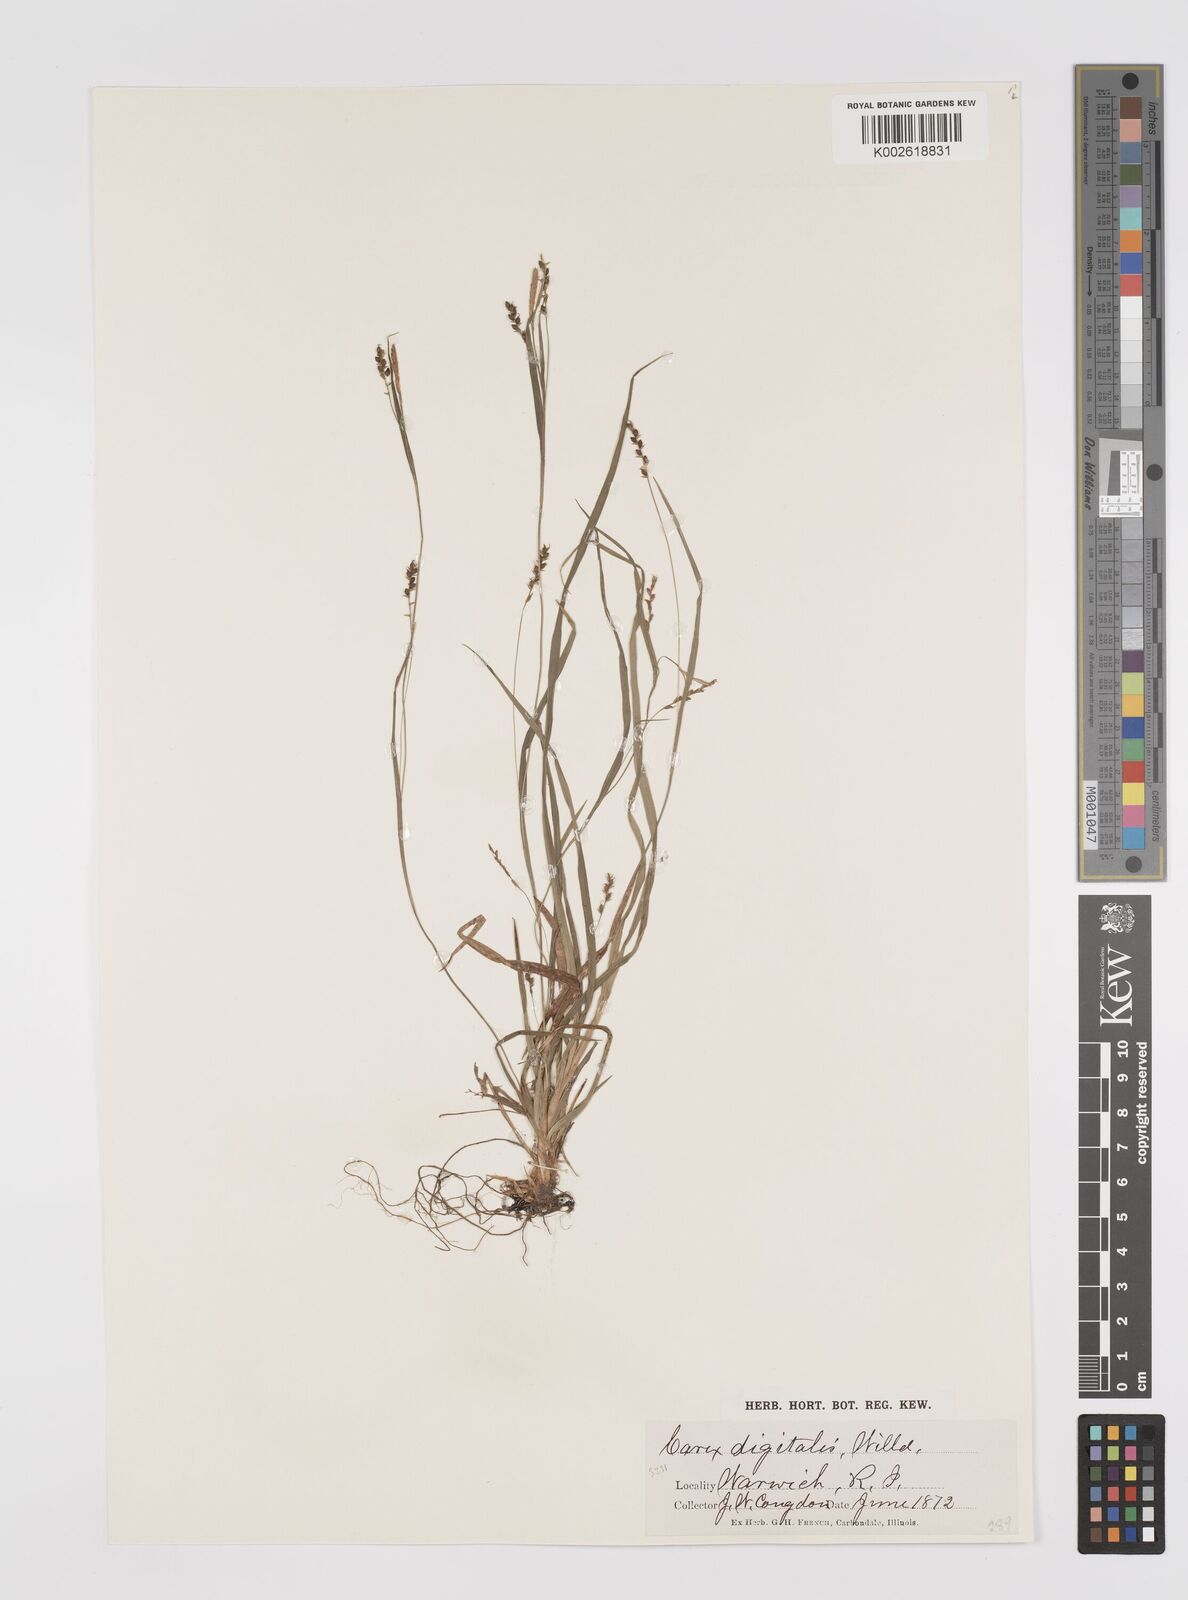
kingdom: Plantae
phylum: Tracheophyta
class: Liliopsida
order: Poales
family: Cyperaceae
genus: Carex
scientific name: Carex digitalis
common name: Slender wood sedge
